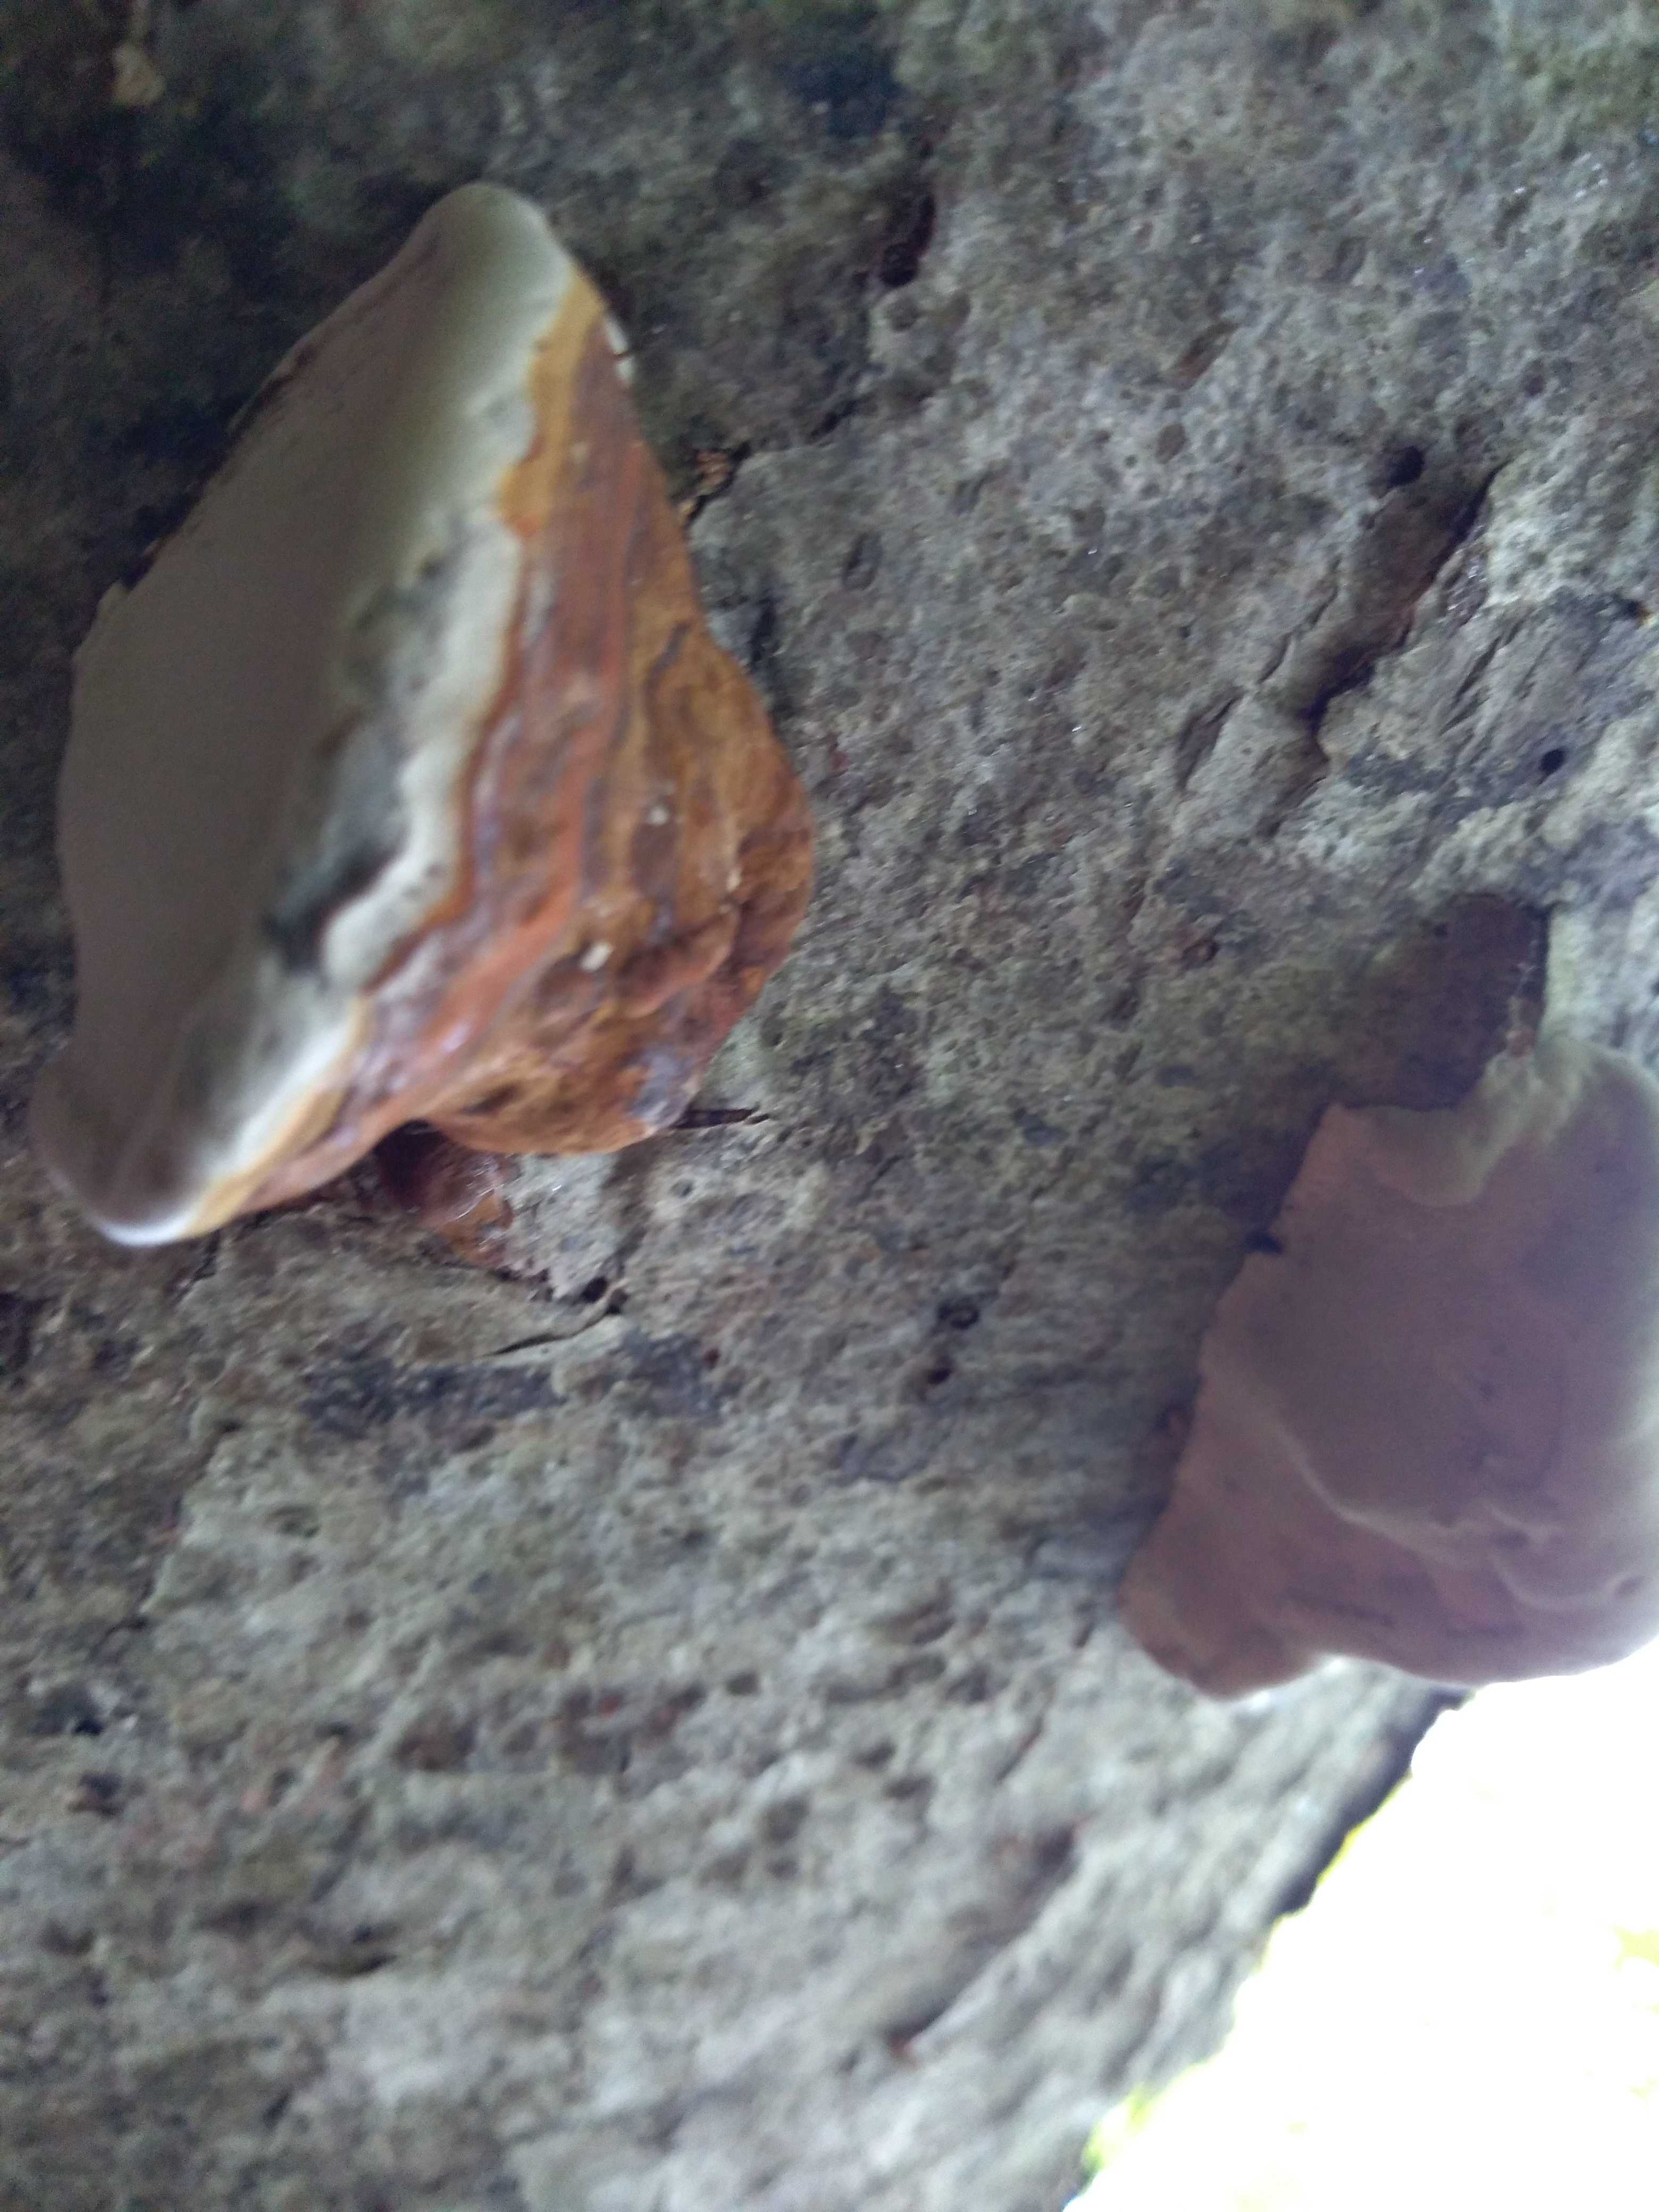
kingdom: Fungi
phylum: Basidiomycota
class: Agaricomycetes
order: Polyporales
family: Polyporaceae
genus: Ganoderma
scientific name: Ganoderma pfeifferi
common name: kobberrød lakporesvamp
